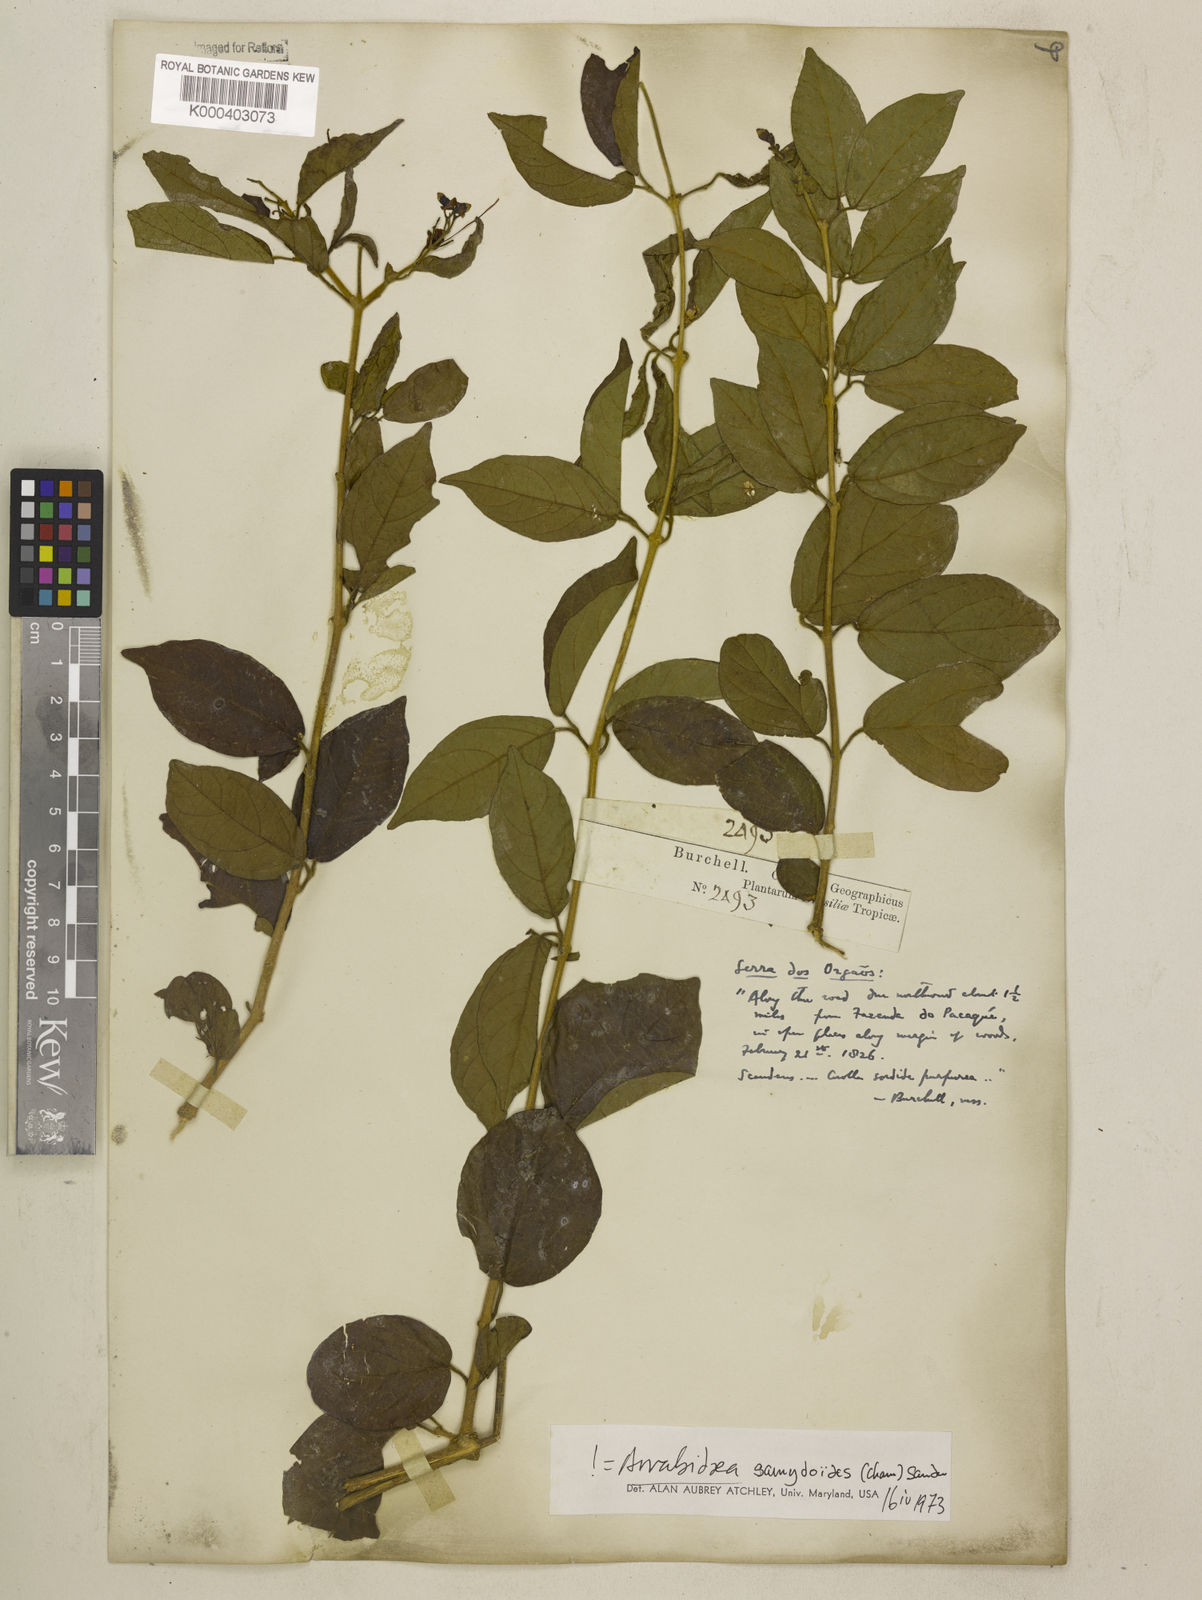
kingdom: Plantae
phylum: Tracheophyta
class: Magnoliopsida
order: Lamiales
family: Bignoniaceae
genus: Fridericia
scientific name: Fridericia samydoides
